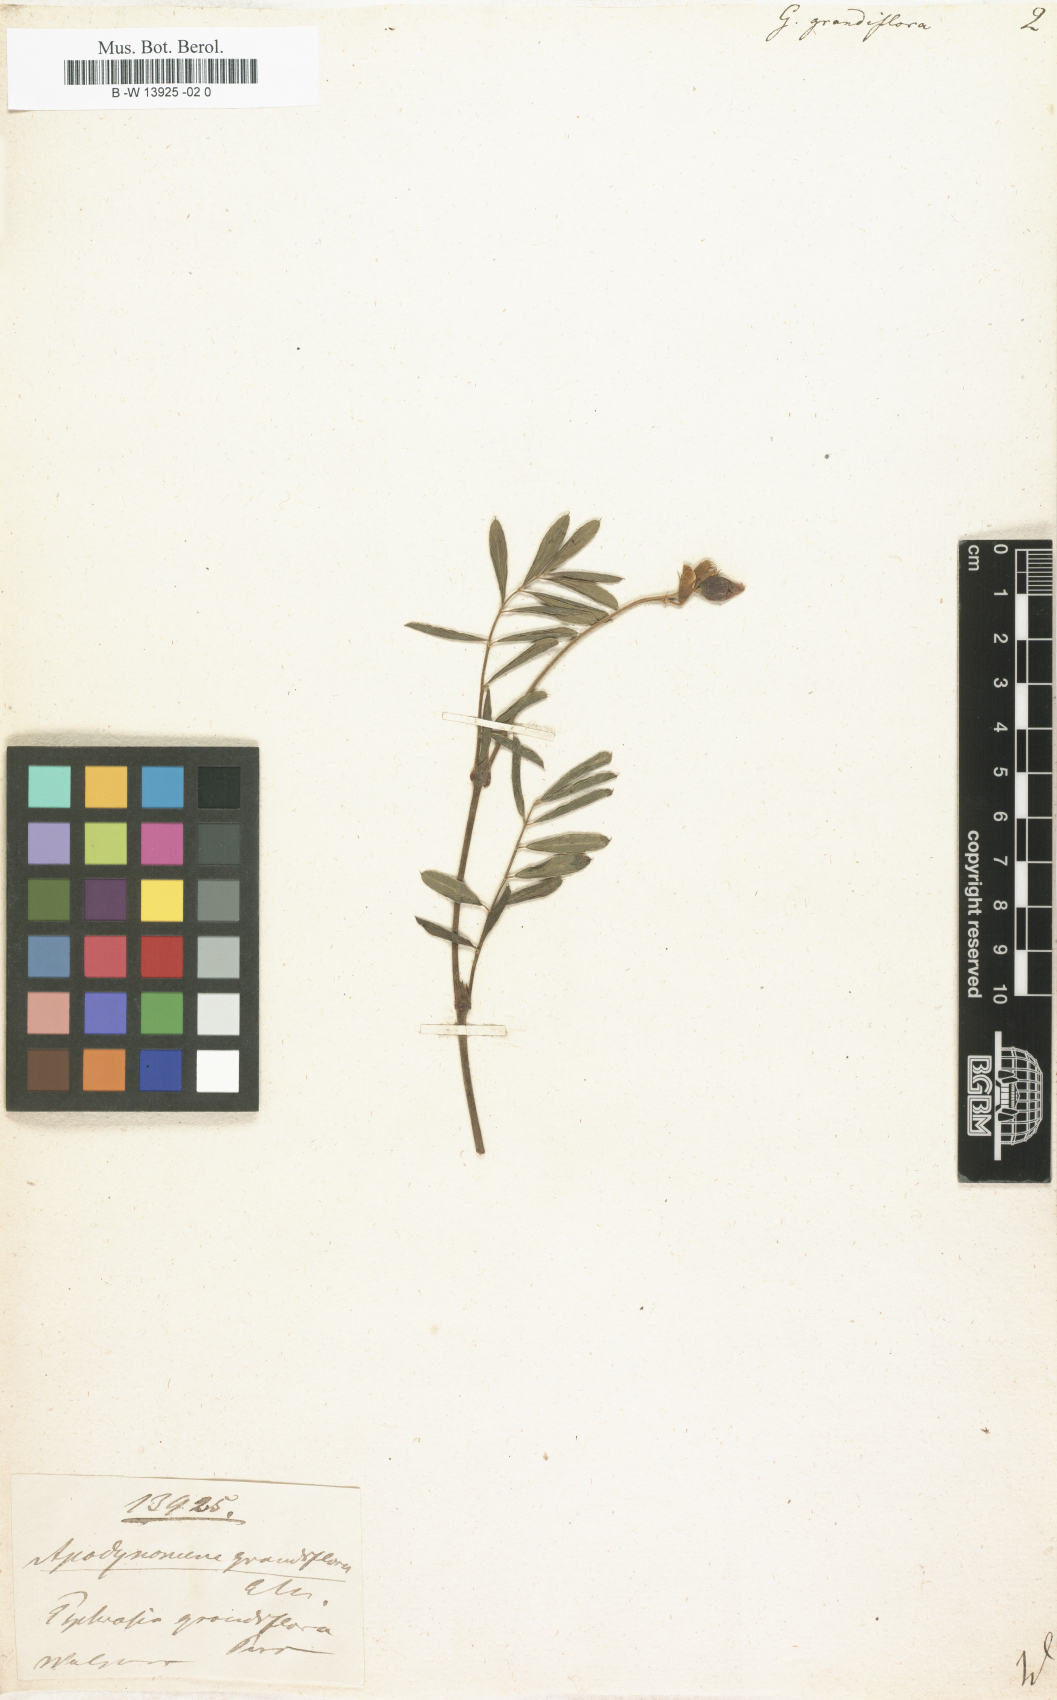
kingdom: Plantae
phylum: Tracheophyta
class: Magnoliopsida
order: Fabales
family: Fabaceae
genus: Tephrosia
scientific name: Tephrosia grandiflora
